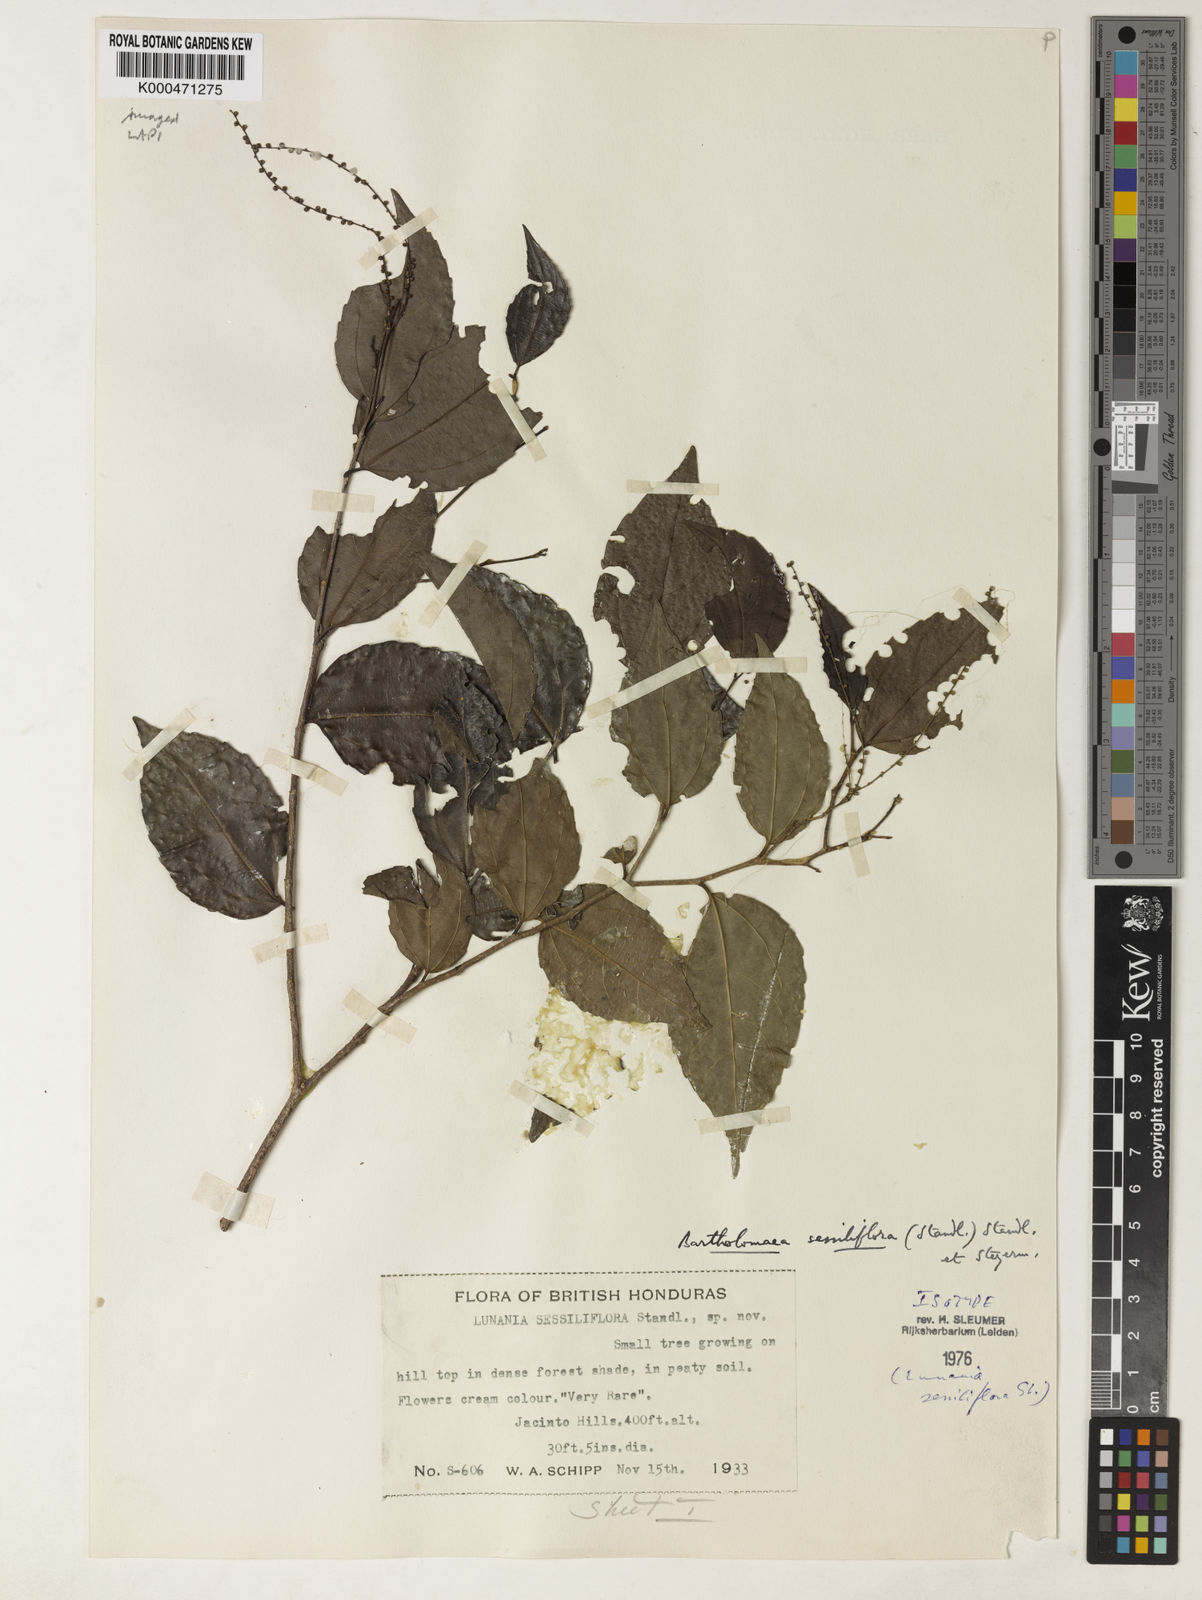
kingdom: Plantae
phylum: Tracheophyta
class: Magnoliopsida
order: Malpighiales
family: Salicaceae
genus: Bartholomaea
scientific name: Bartholomaea sessiliflora
